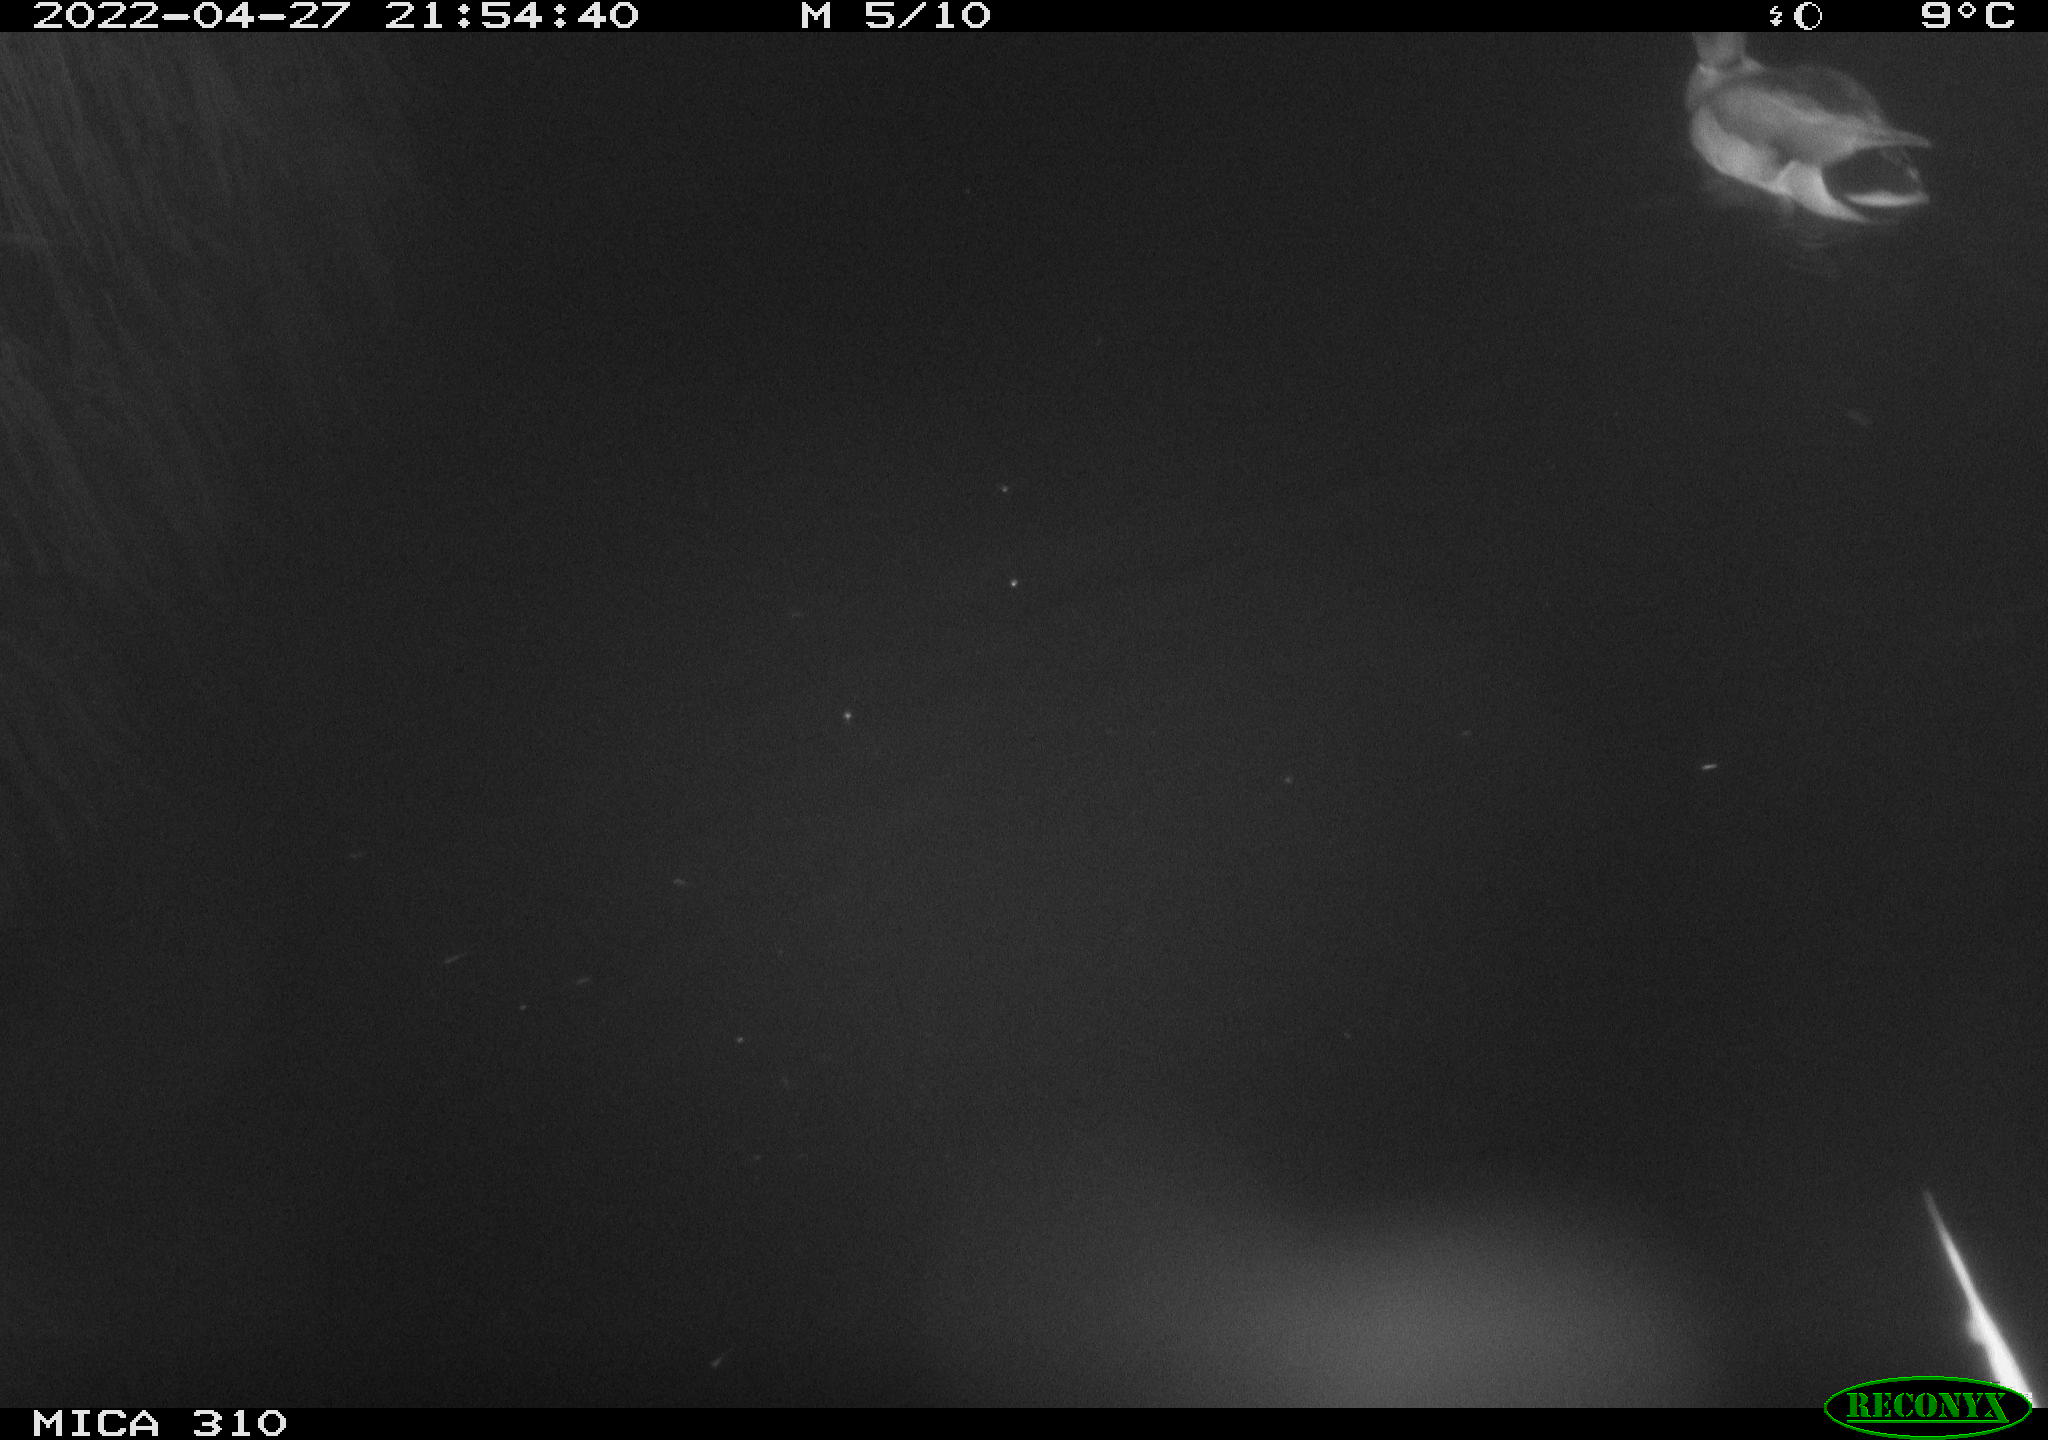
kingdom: Animalia
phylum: Chordata
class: Aves
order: Anseriformes
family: Anatidae
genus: Anas
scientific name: Anas platyrhynchos
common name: Mallard
